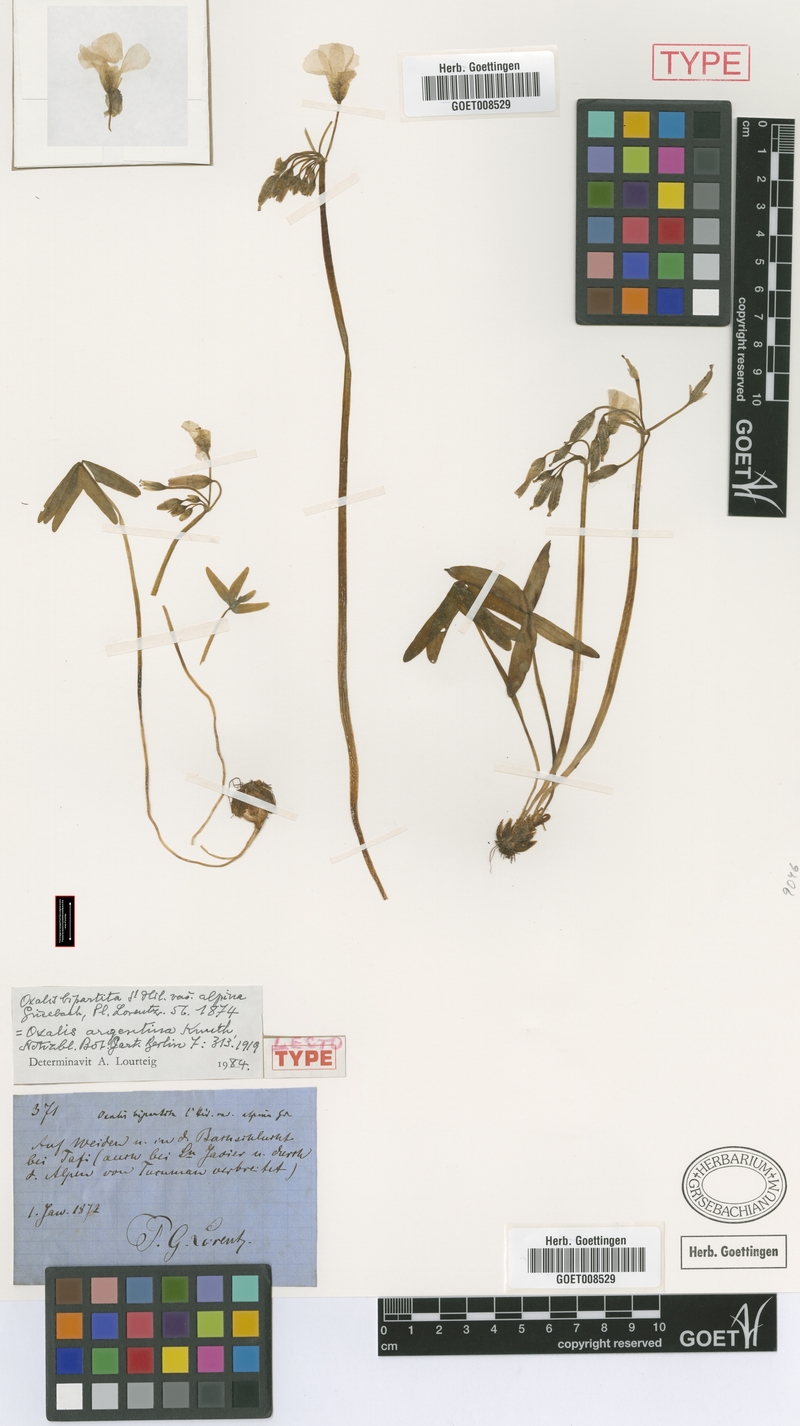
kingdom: Plantae
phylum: Tracheophyta
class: Magnoliopsida
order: Oxalidales
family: Oxalidaceae
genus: Oxalis
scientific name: Oxalis argentina
